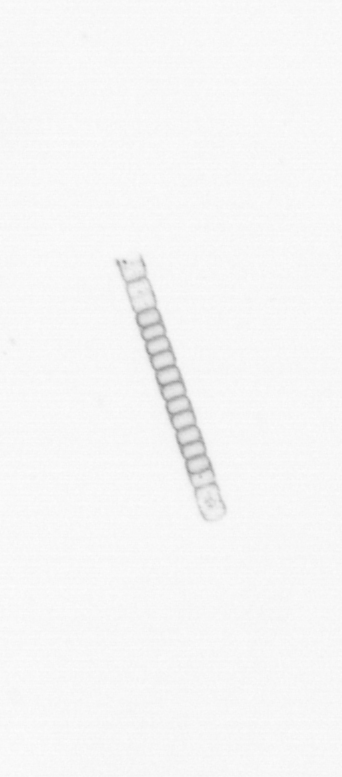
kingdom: Chromista
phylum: Ochrophyta
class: Bacillariophyceae
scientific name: Bacillariophyceae
